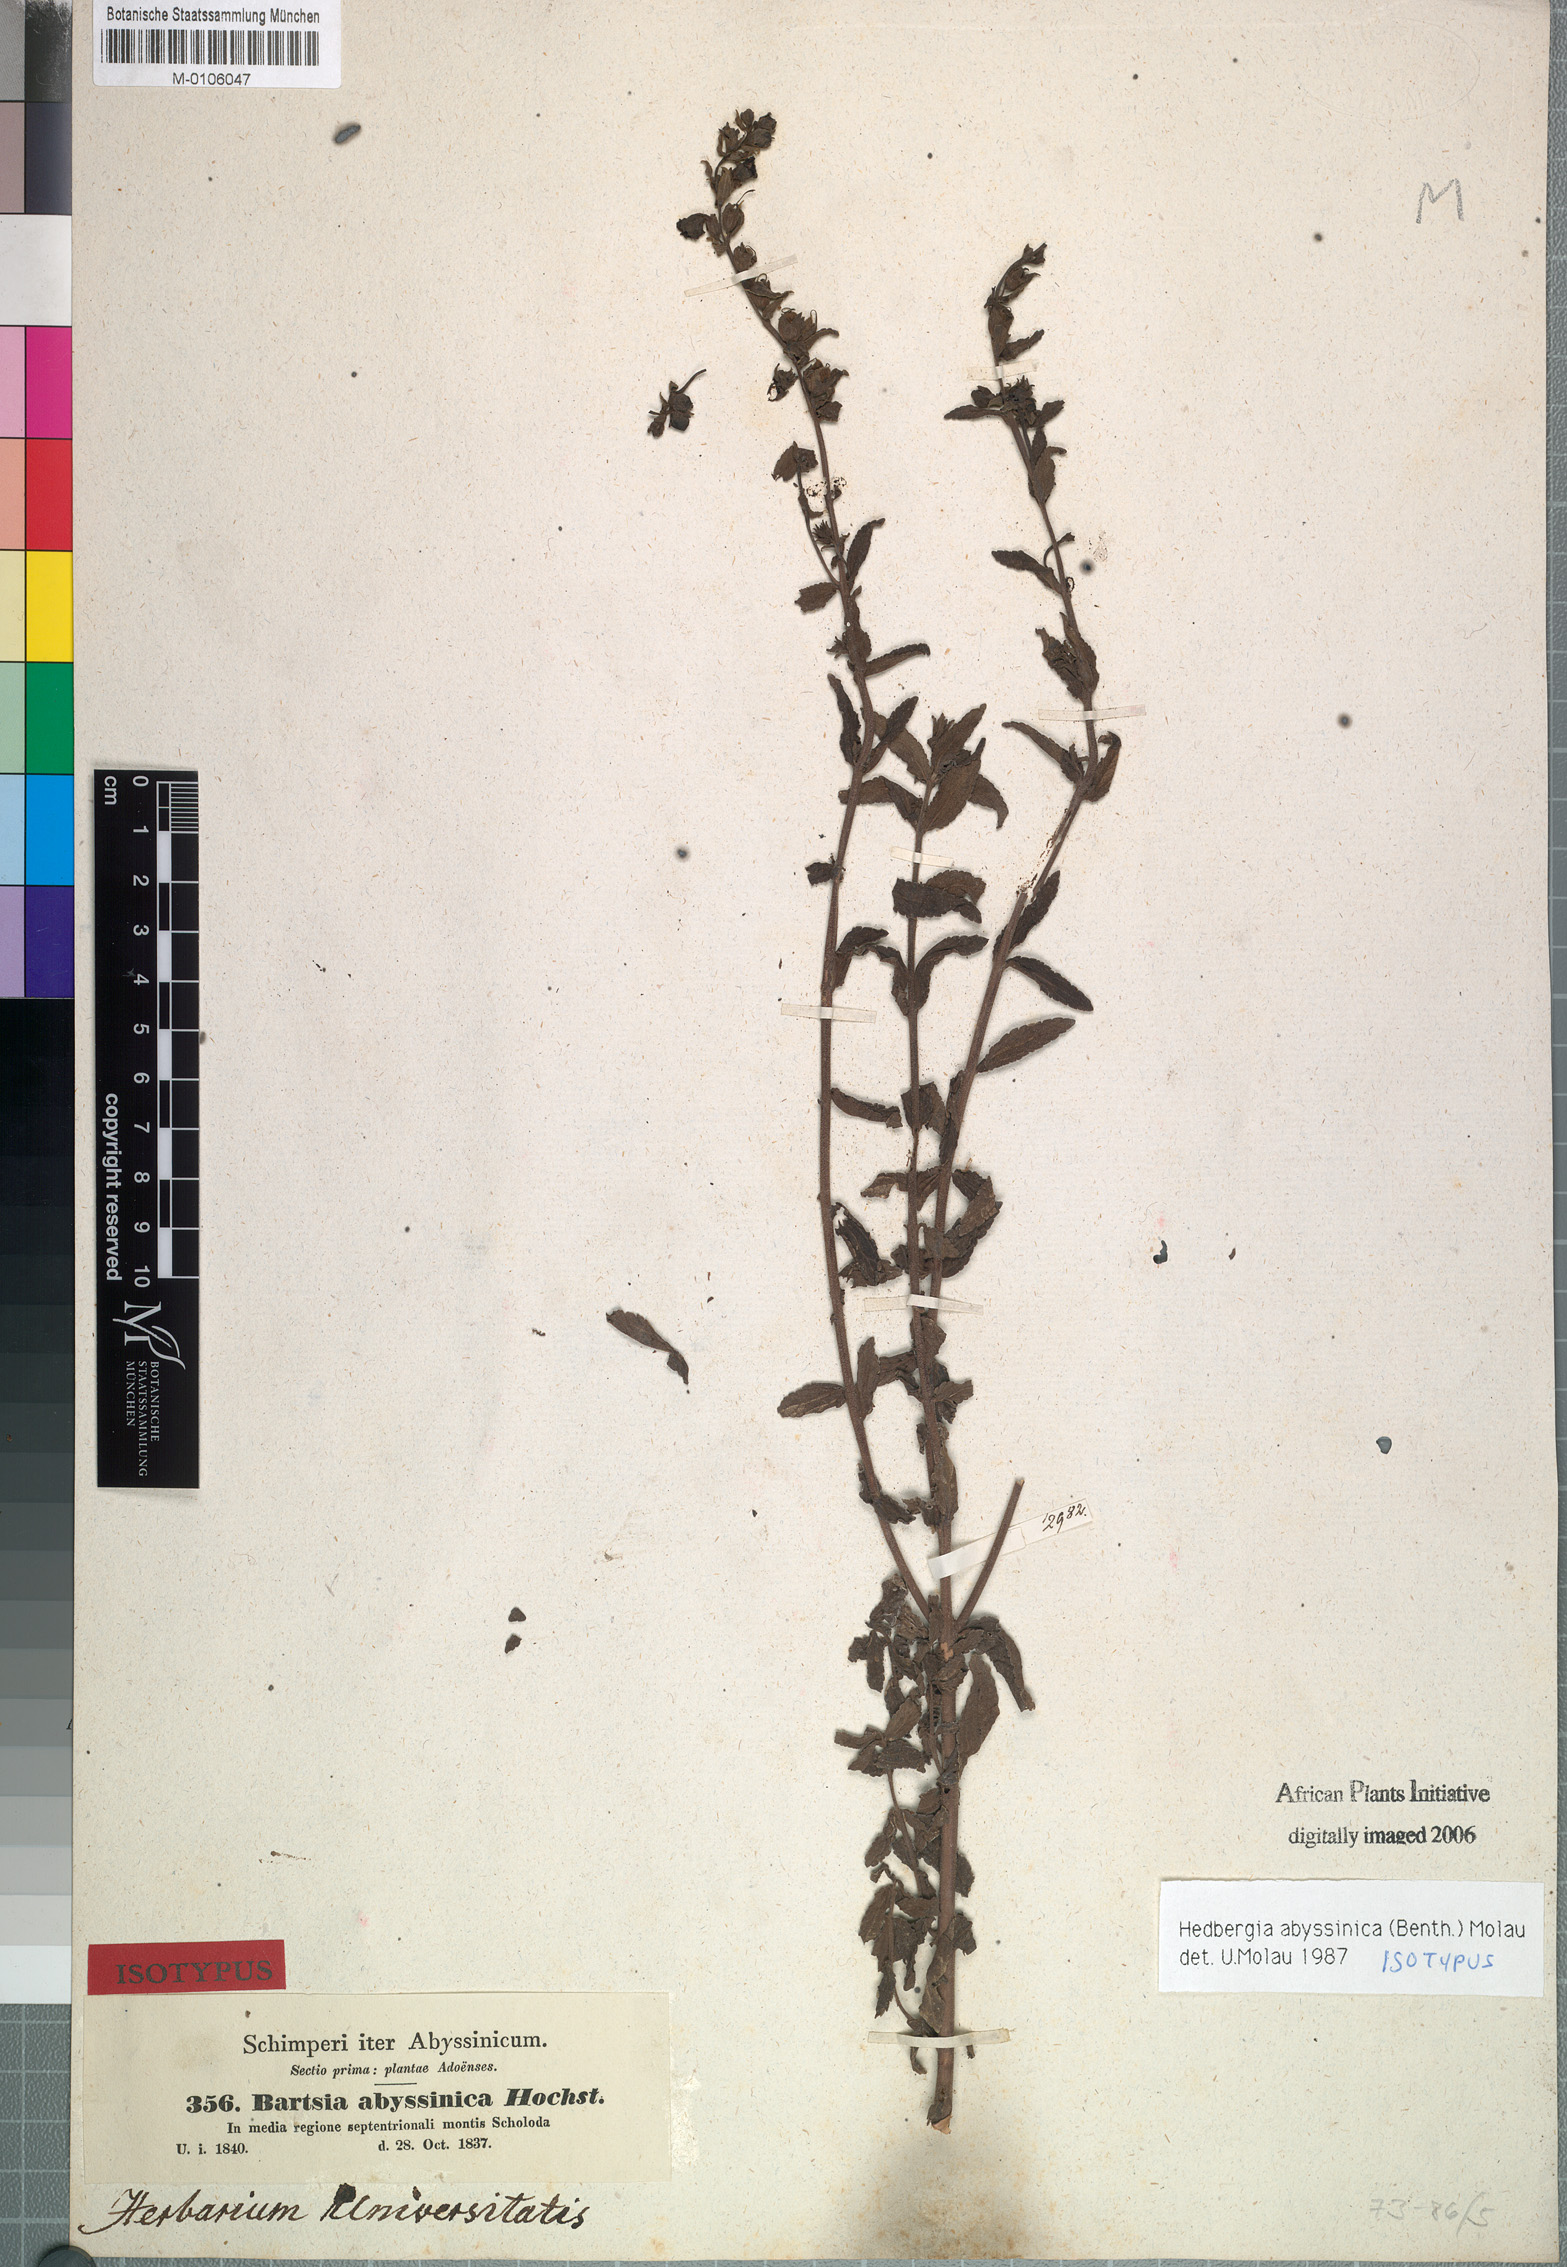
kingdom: Plantae
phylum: Tracheophyta
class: Magnoliopsida
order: Lamiales
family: Orobanchaceae
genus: Hedbergia
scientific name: Hedbergia abyssinica
